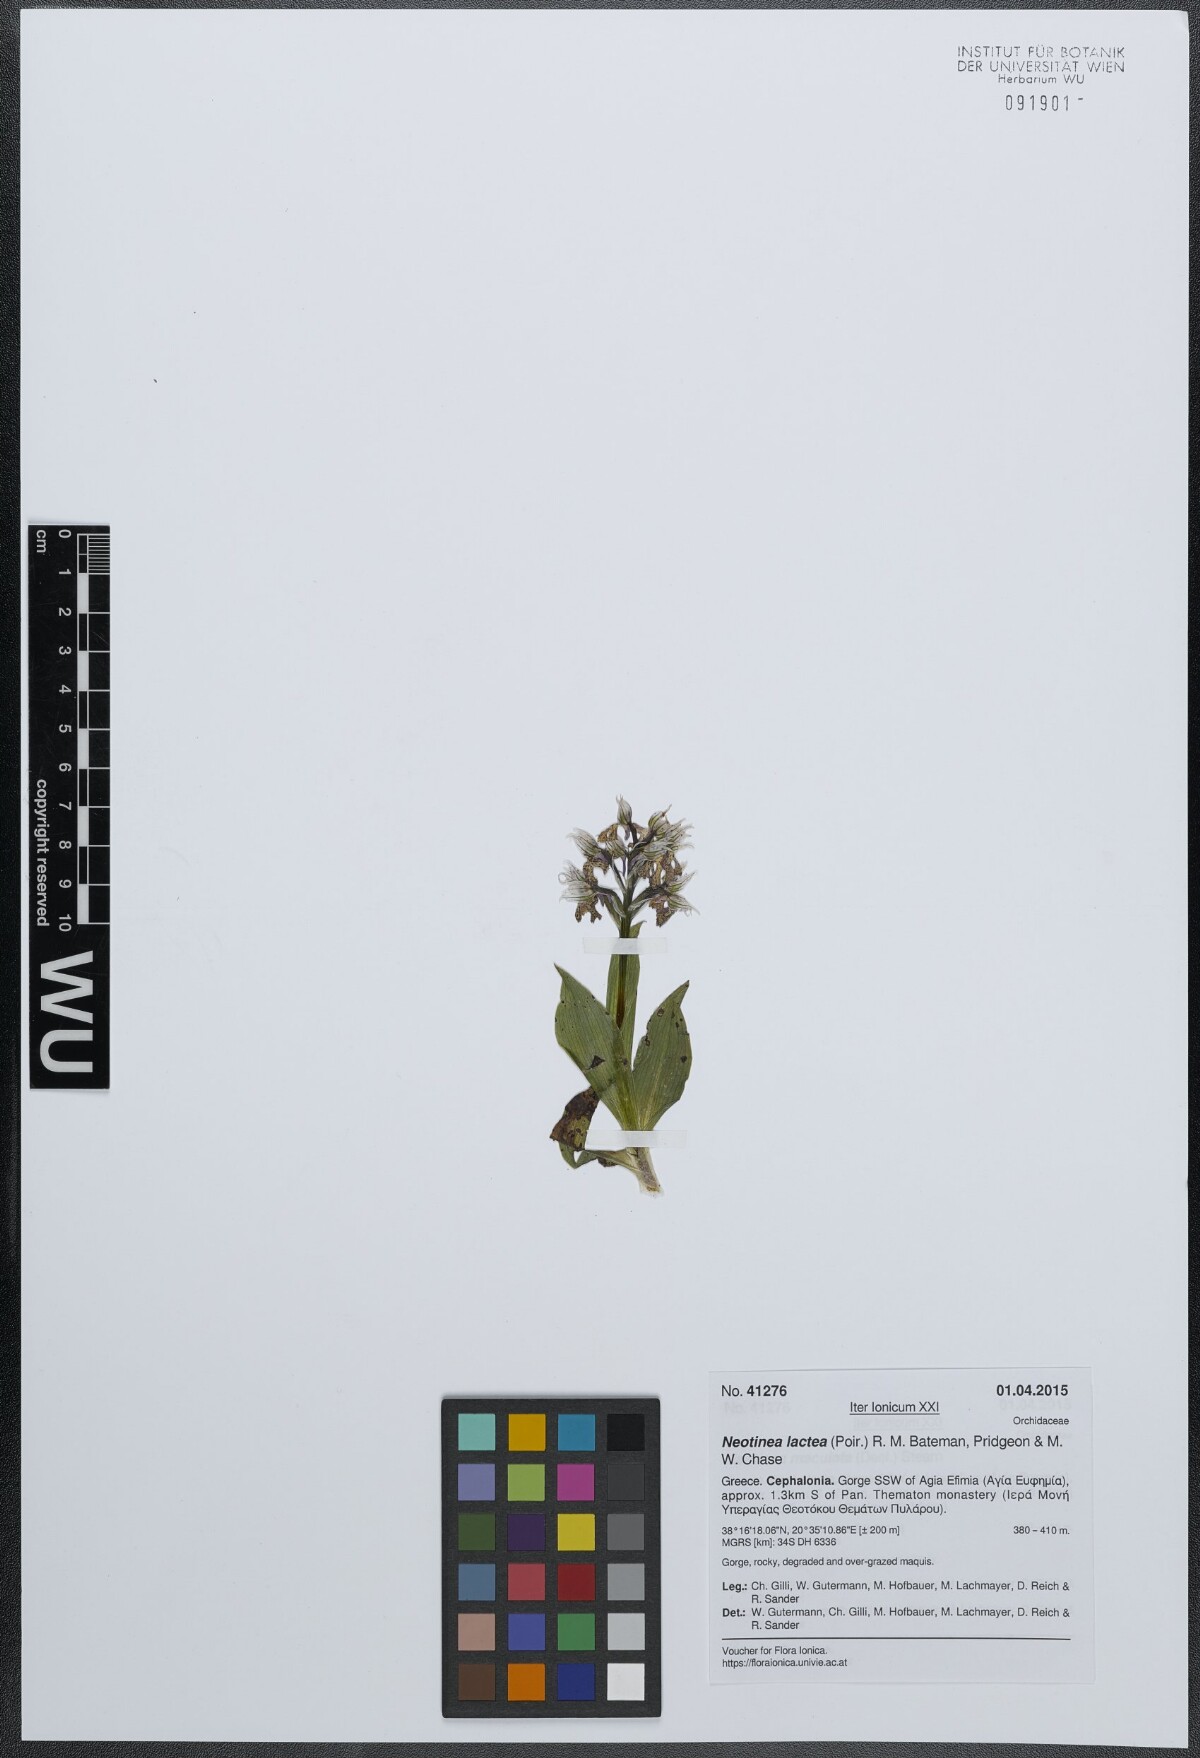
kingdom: Plantae
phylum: Tracheophyta
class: Liliopsida
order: Asparagales
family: Orchidaceae
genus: Neotinea
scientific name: Neotinea lactea
